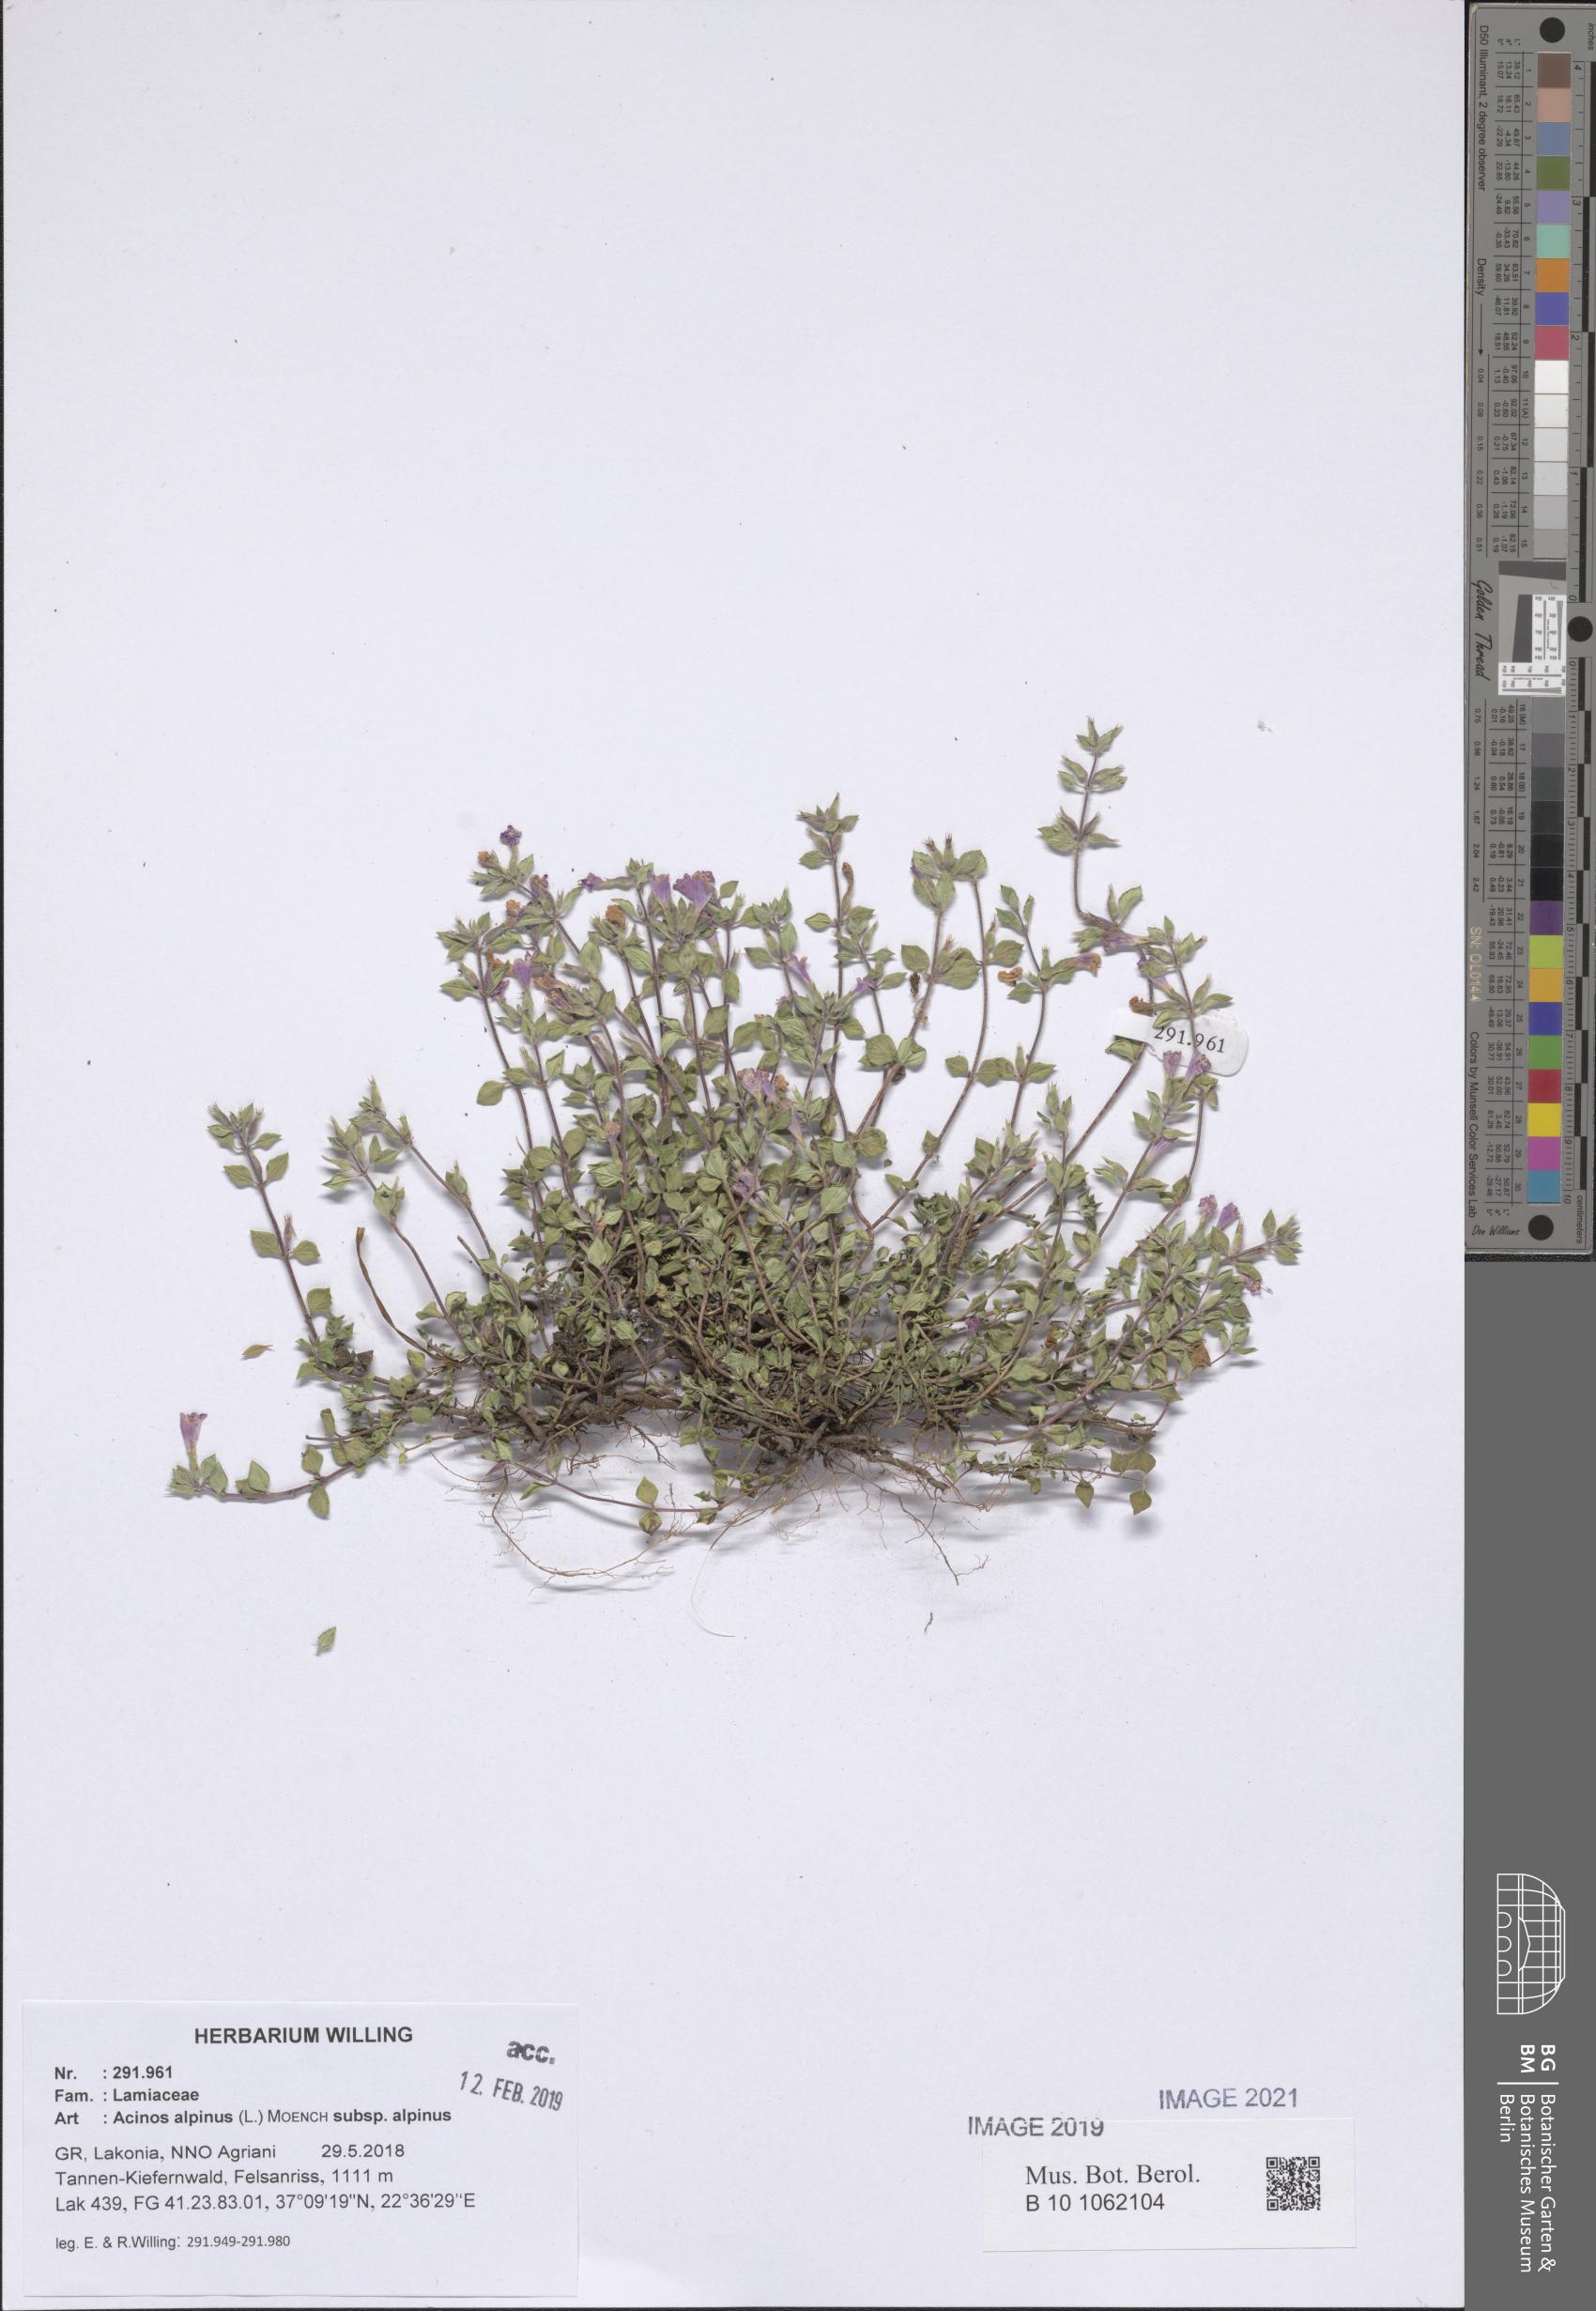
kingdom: Plantae
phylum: Tracheophyta
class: Magnoliopsida
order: Lamiales
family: Lamiaceae
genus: Clinopodium
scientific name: Clinopodium alpinum
